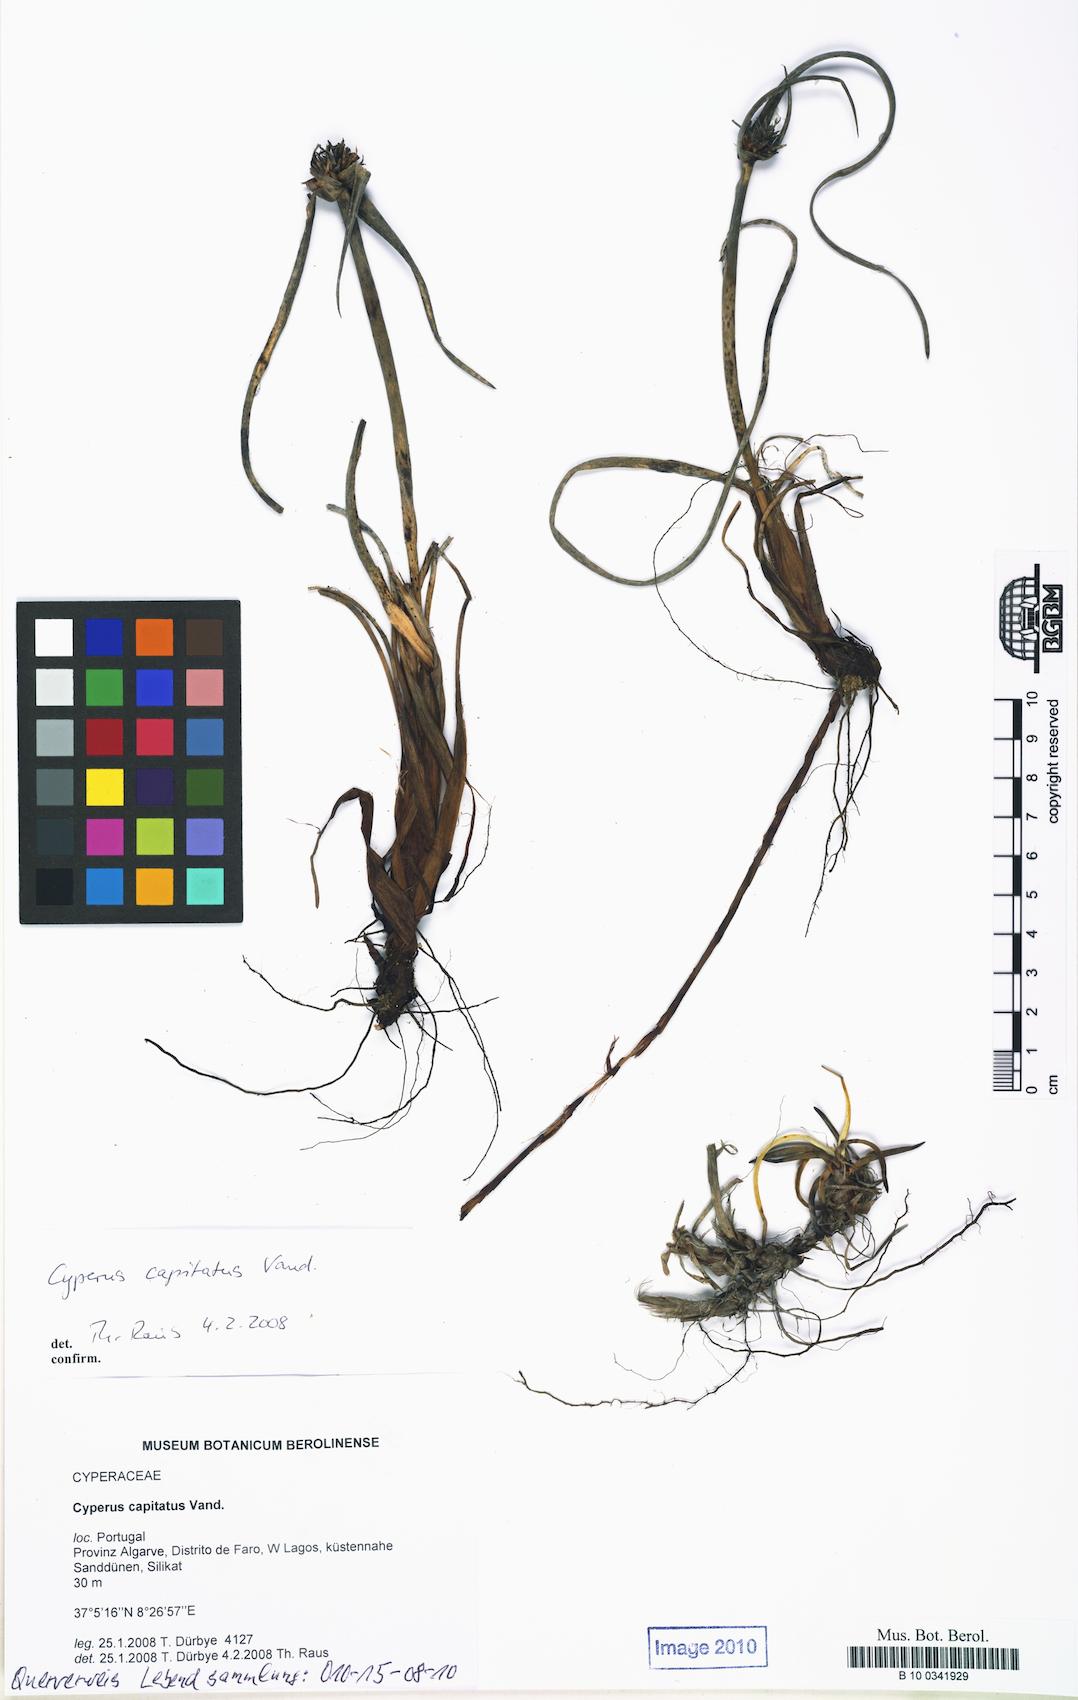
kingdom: Plantae
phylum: Tracheophyta
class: Liliopsida
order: Poales
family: Cyperaceae
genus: Cyperus
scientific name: Cyperus capitatus
